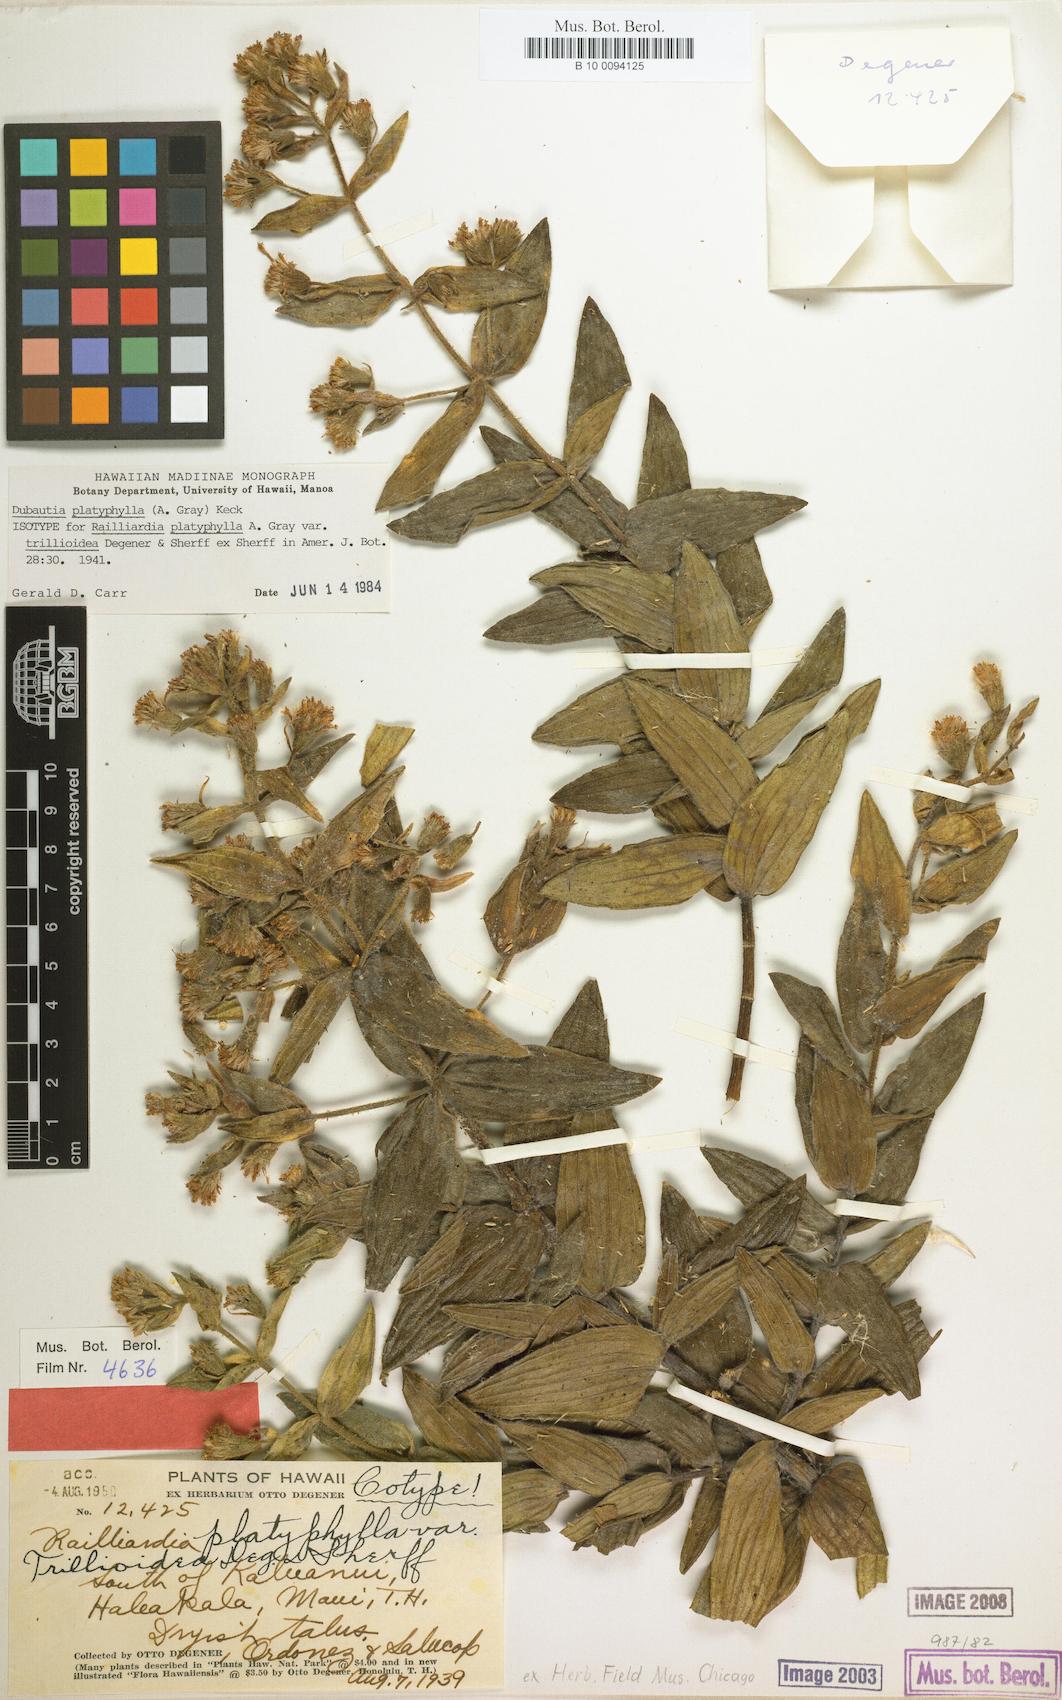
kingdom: Plantae
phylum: Tracheophyta
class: Magnoliopsida
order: Asterales
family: Asteraceae
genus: Dubautia
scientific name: Dubautia platyphylla
